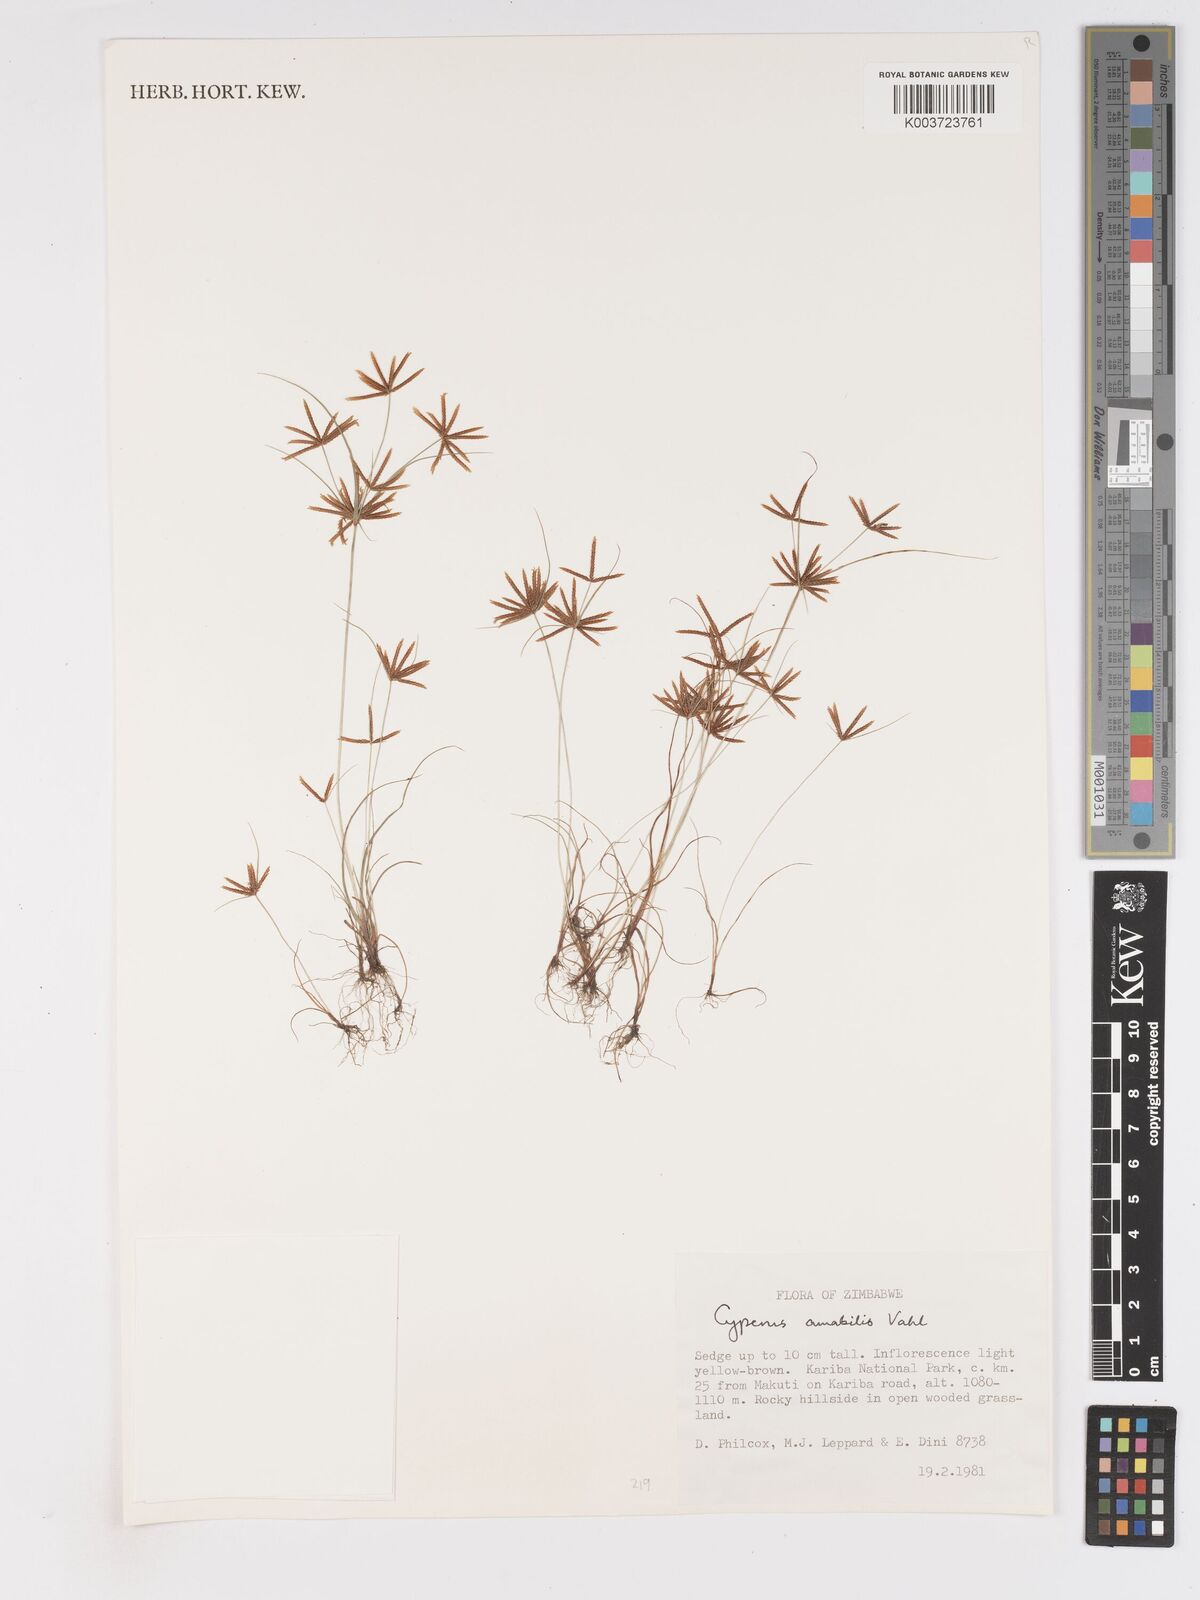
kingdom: Plantae
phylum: Tracheophyta
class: Liliopsida
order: Poales
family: Cyperaceae
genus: Cyperus
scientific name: Cyperus amabilis
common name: Foothill flat sedge
